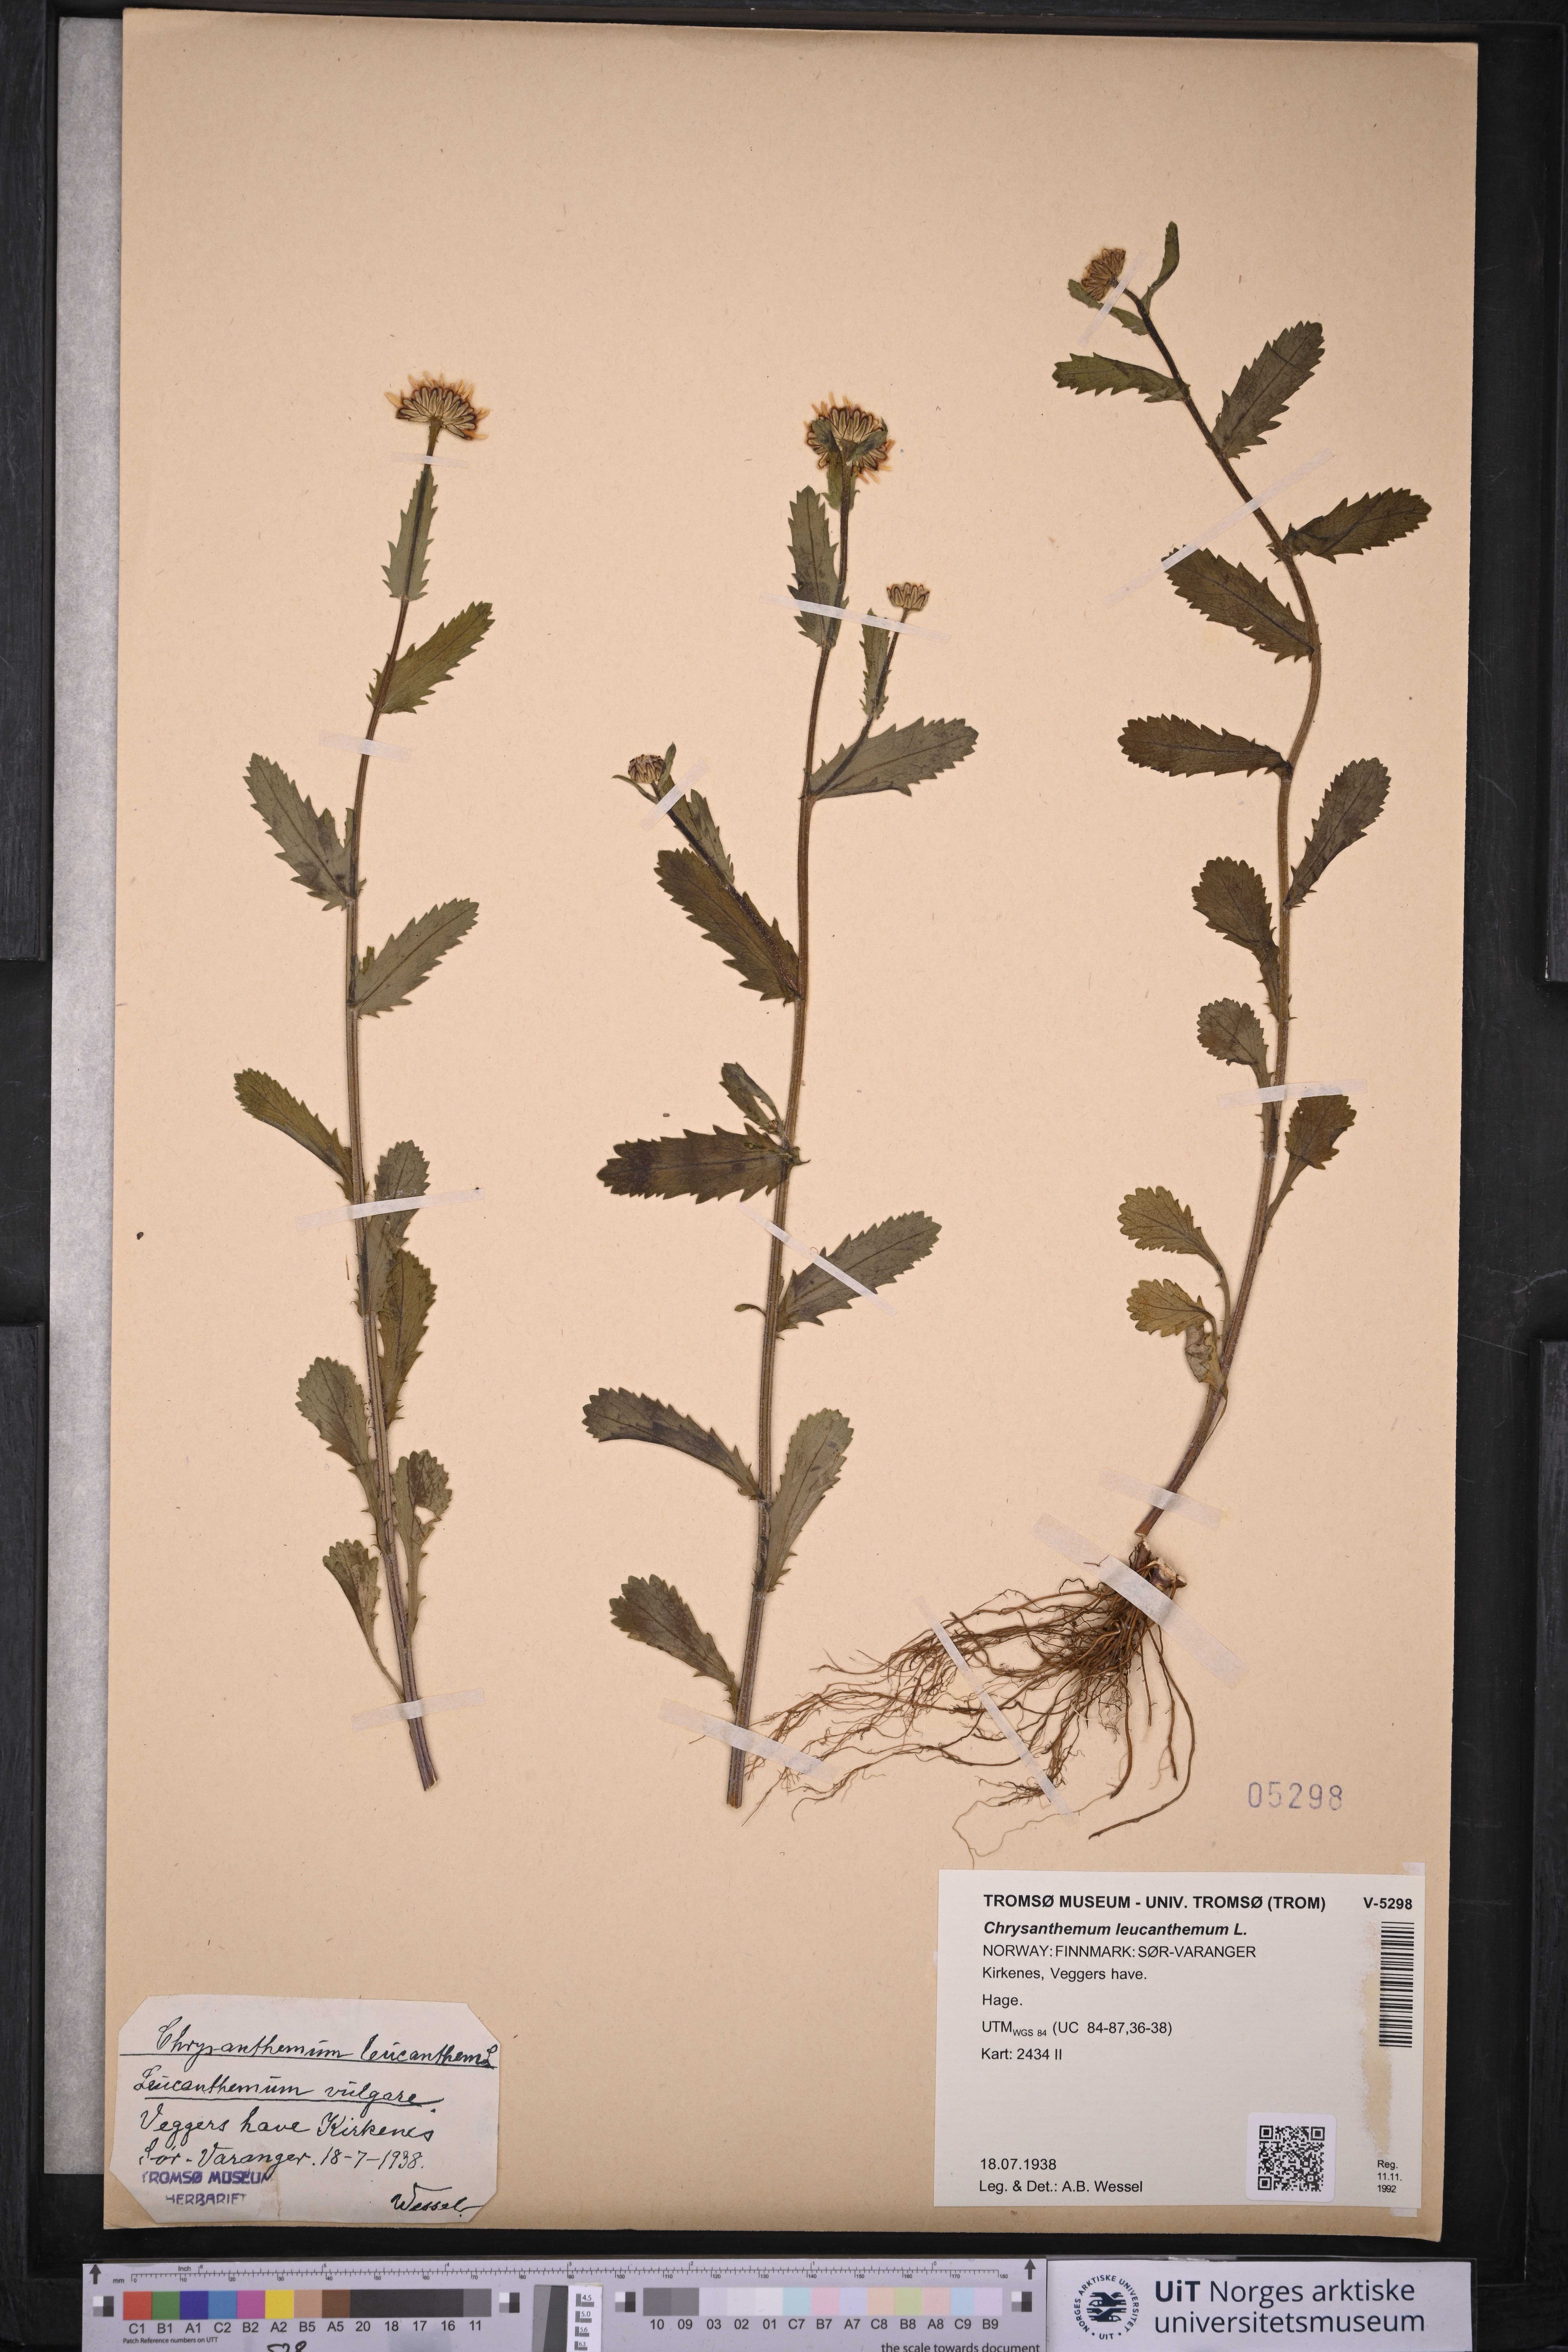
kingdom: Plantae
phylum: Tracheophyta
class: Magnoliopsida
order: Asterales
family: Asteraceae
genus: Leucanthemum
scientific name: Leucanthemum vulgare
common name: Oxeye daisy
